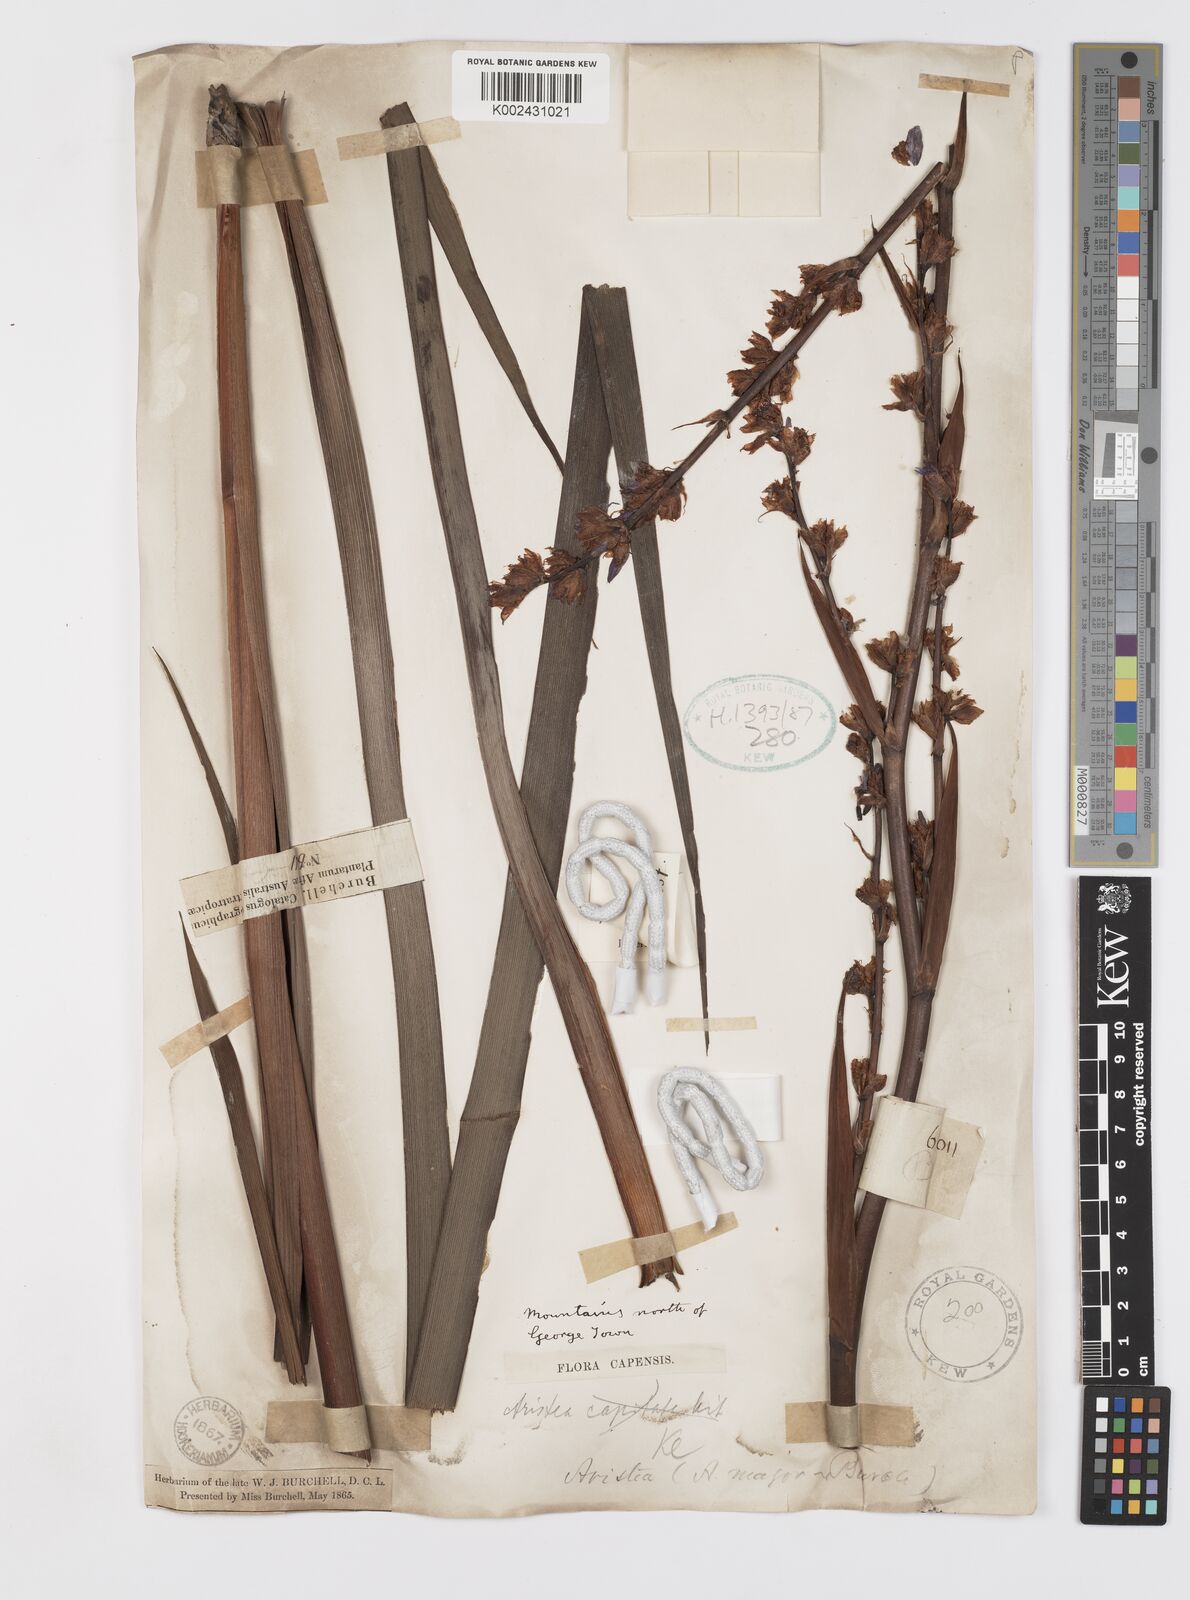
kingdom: Plantae
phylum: Tracheophyta
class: Liliopsida
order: Asparagales
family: Iridaceae
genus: Aristea
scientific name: Aristea capitata
